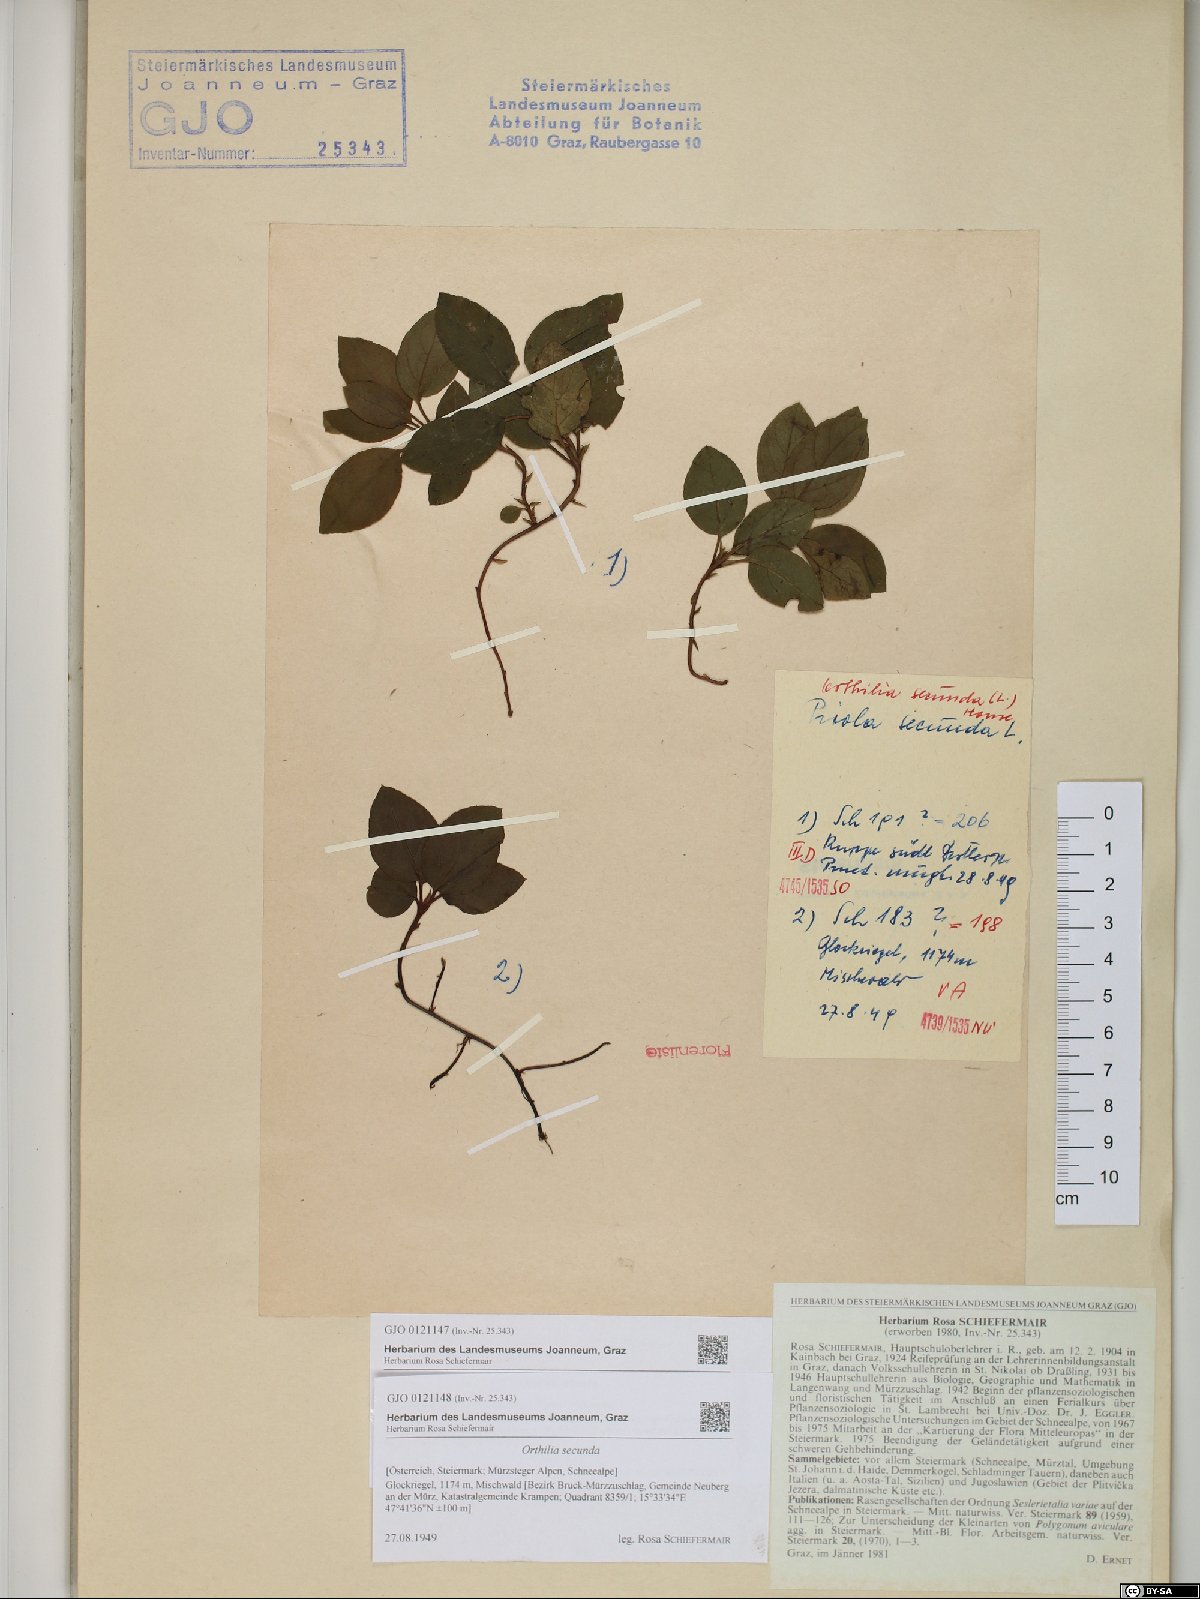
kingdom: Plantae
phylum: Tracheophyta
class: Magnoliopsida
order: Ericales
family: Ericaceae
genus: Orthilia
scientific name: Orthilia secunda
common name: One-sided orthilia
